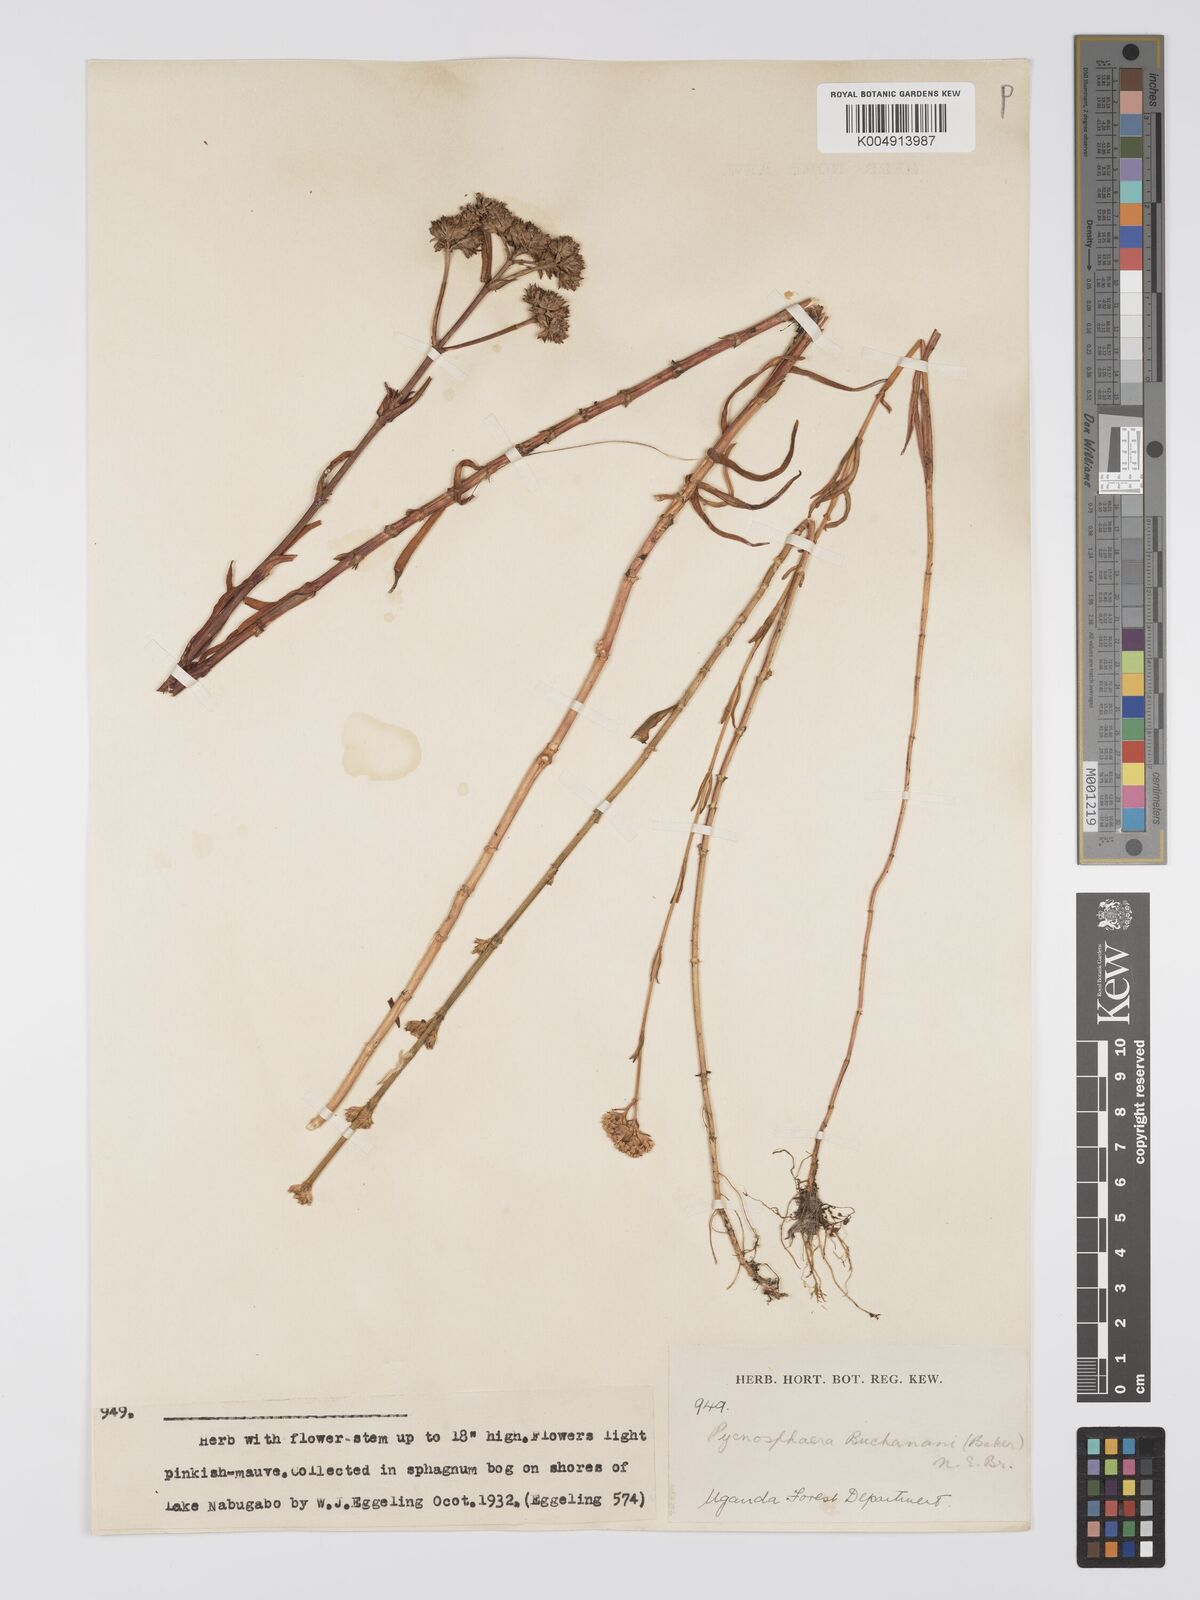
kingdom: Plantae
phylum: Tracheophyta
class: Magnoliopsida
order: Gentianales
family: Gentianaceae
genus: Pycnosphaera
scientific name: Pycnosphaera buchananii
